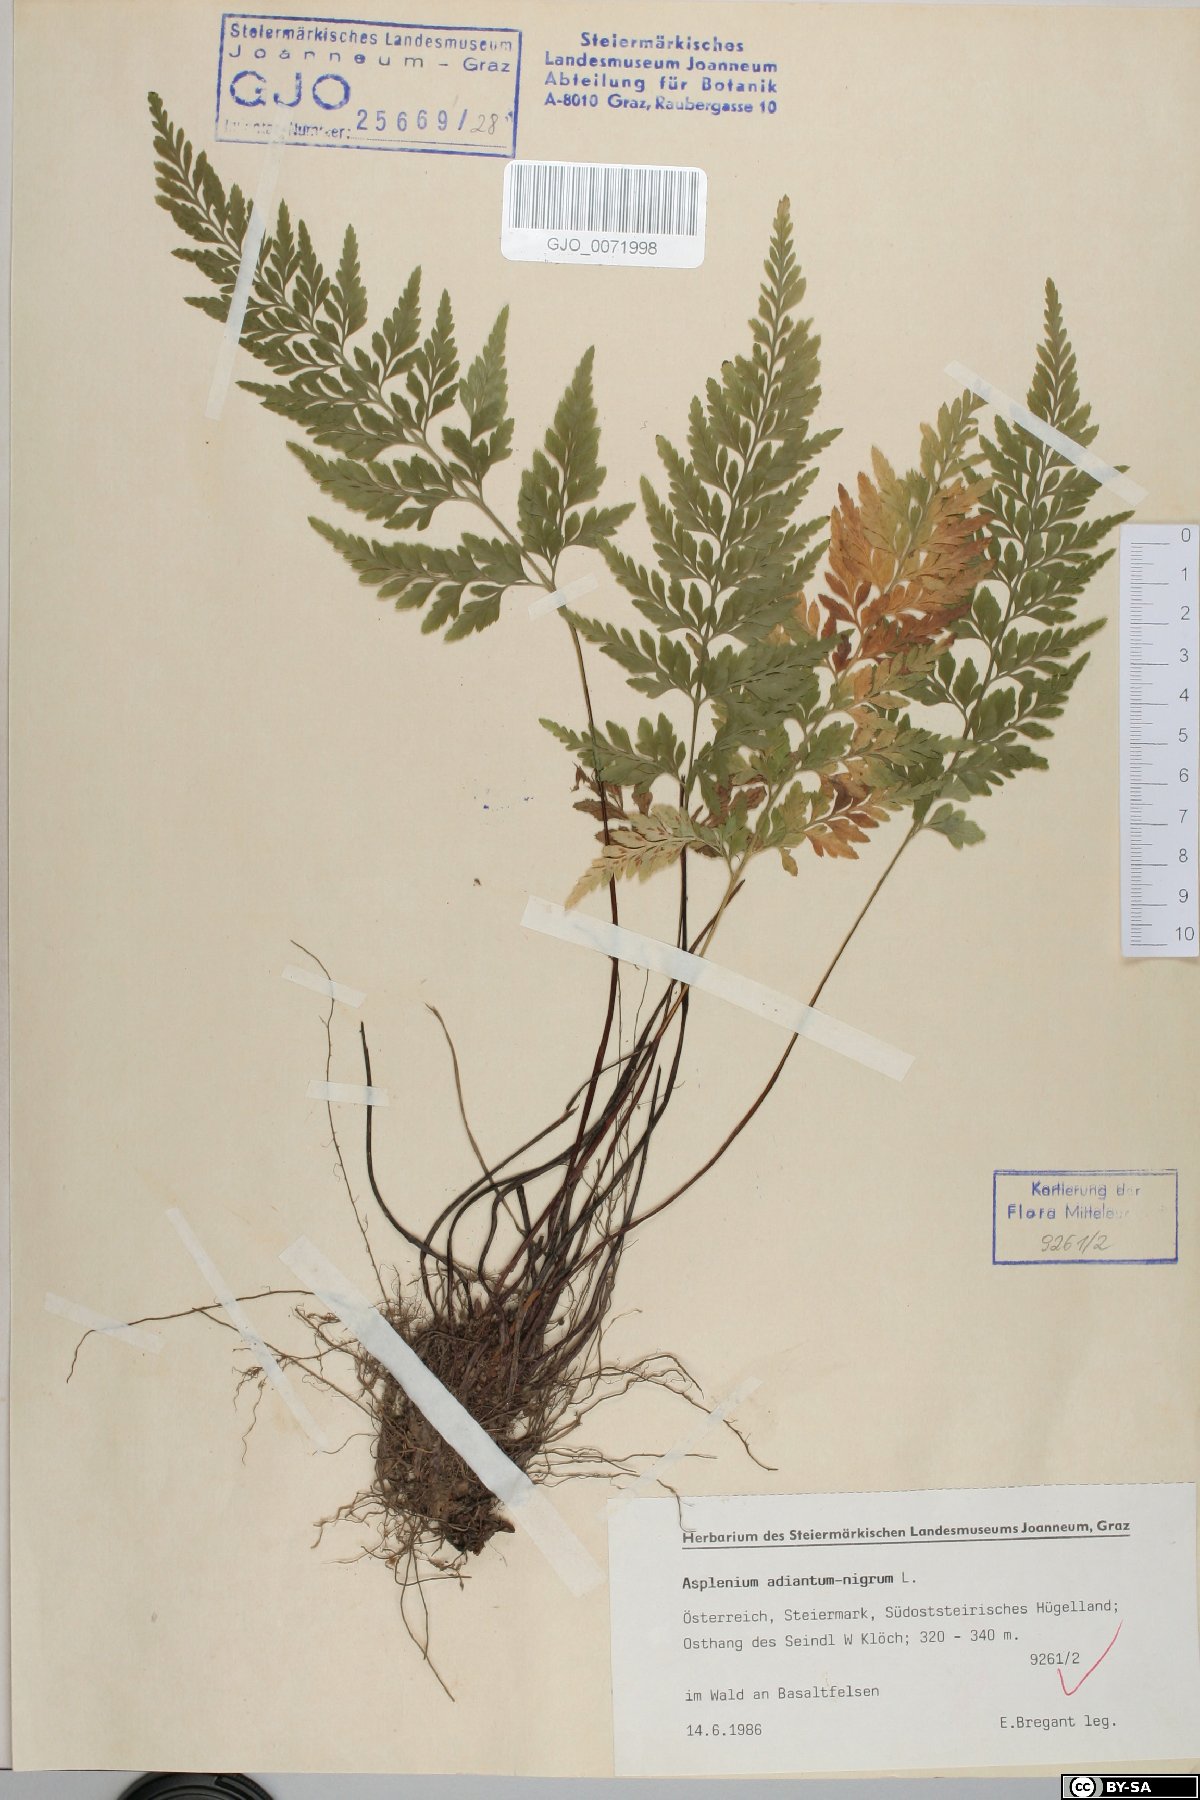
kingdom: Plantae
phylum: Tracheophyta
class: Polypodiopsida
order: Polypodiales
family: Aspleniaceae
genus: Asplenium
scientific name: Asplenium adiantum-nigrum
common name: Black spleenwort
